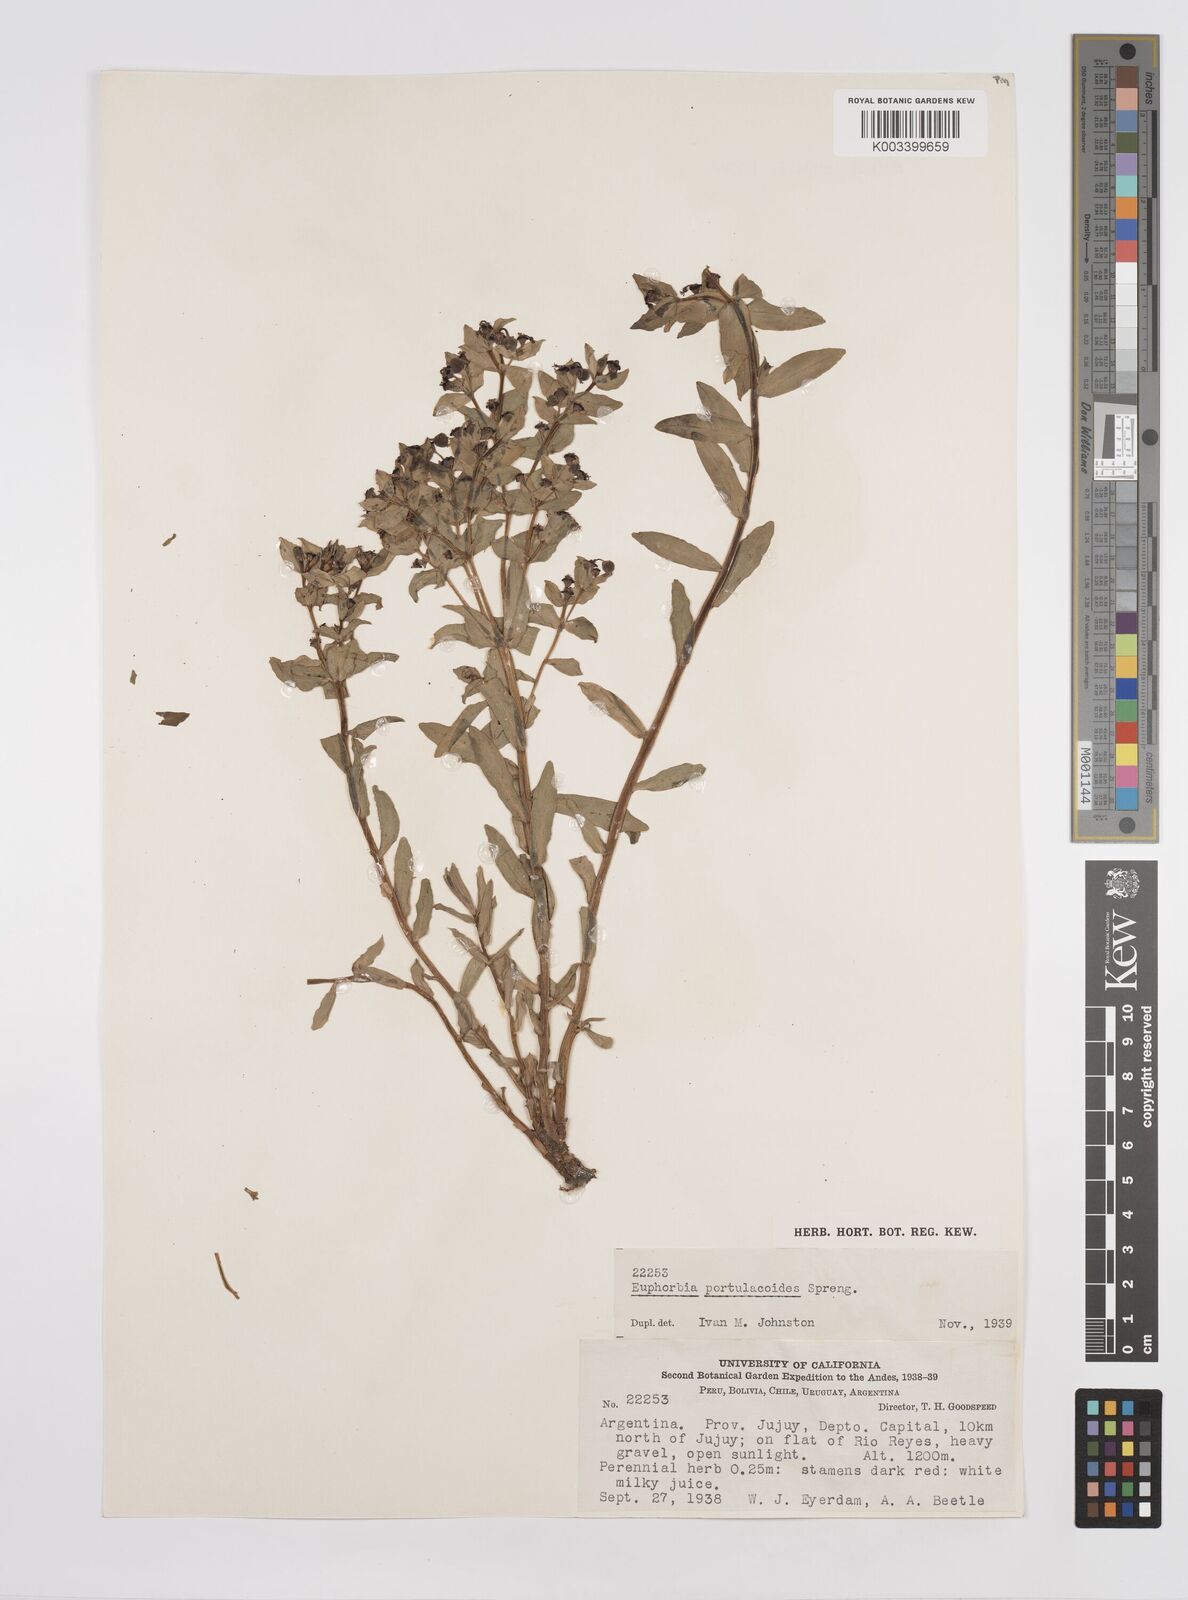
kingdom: Plantae
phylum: Tracheophyta
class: Magnoliopsida
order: Malpighiales
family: Euphorbiaceae
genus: Euphorbia
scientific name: Euphorbia portulacoides
